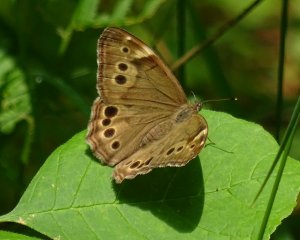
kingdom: Animalia
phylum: Arthropoda
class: Insecta
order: Lepidoptera
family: Nymphalidae
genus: Lethe
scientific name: Lethe anthedon
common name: Northern Pearly-Eye
